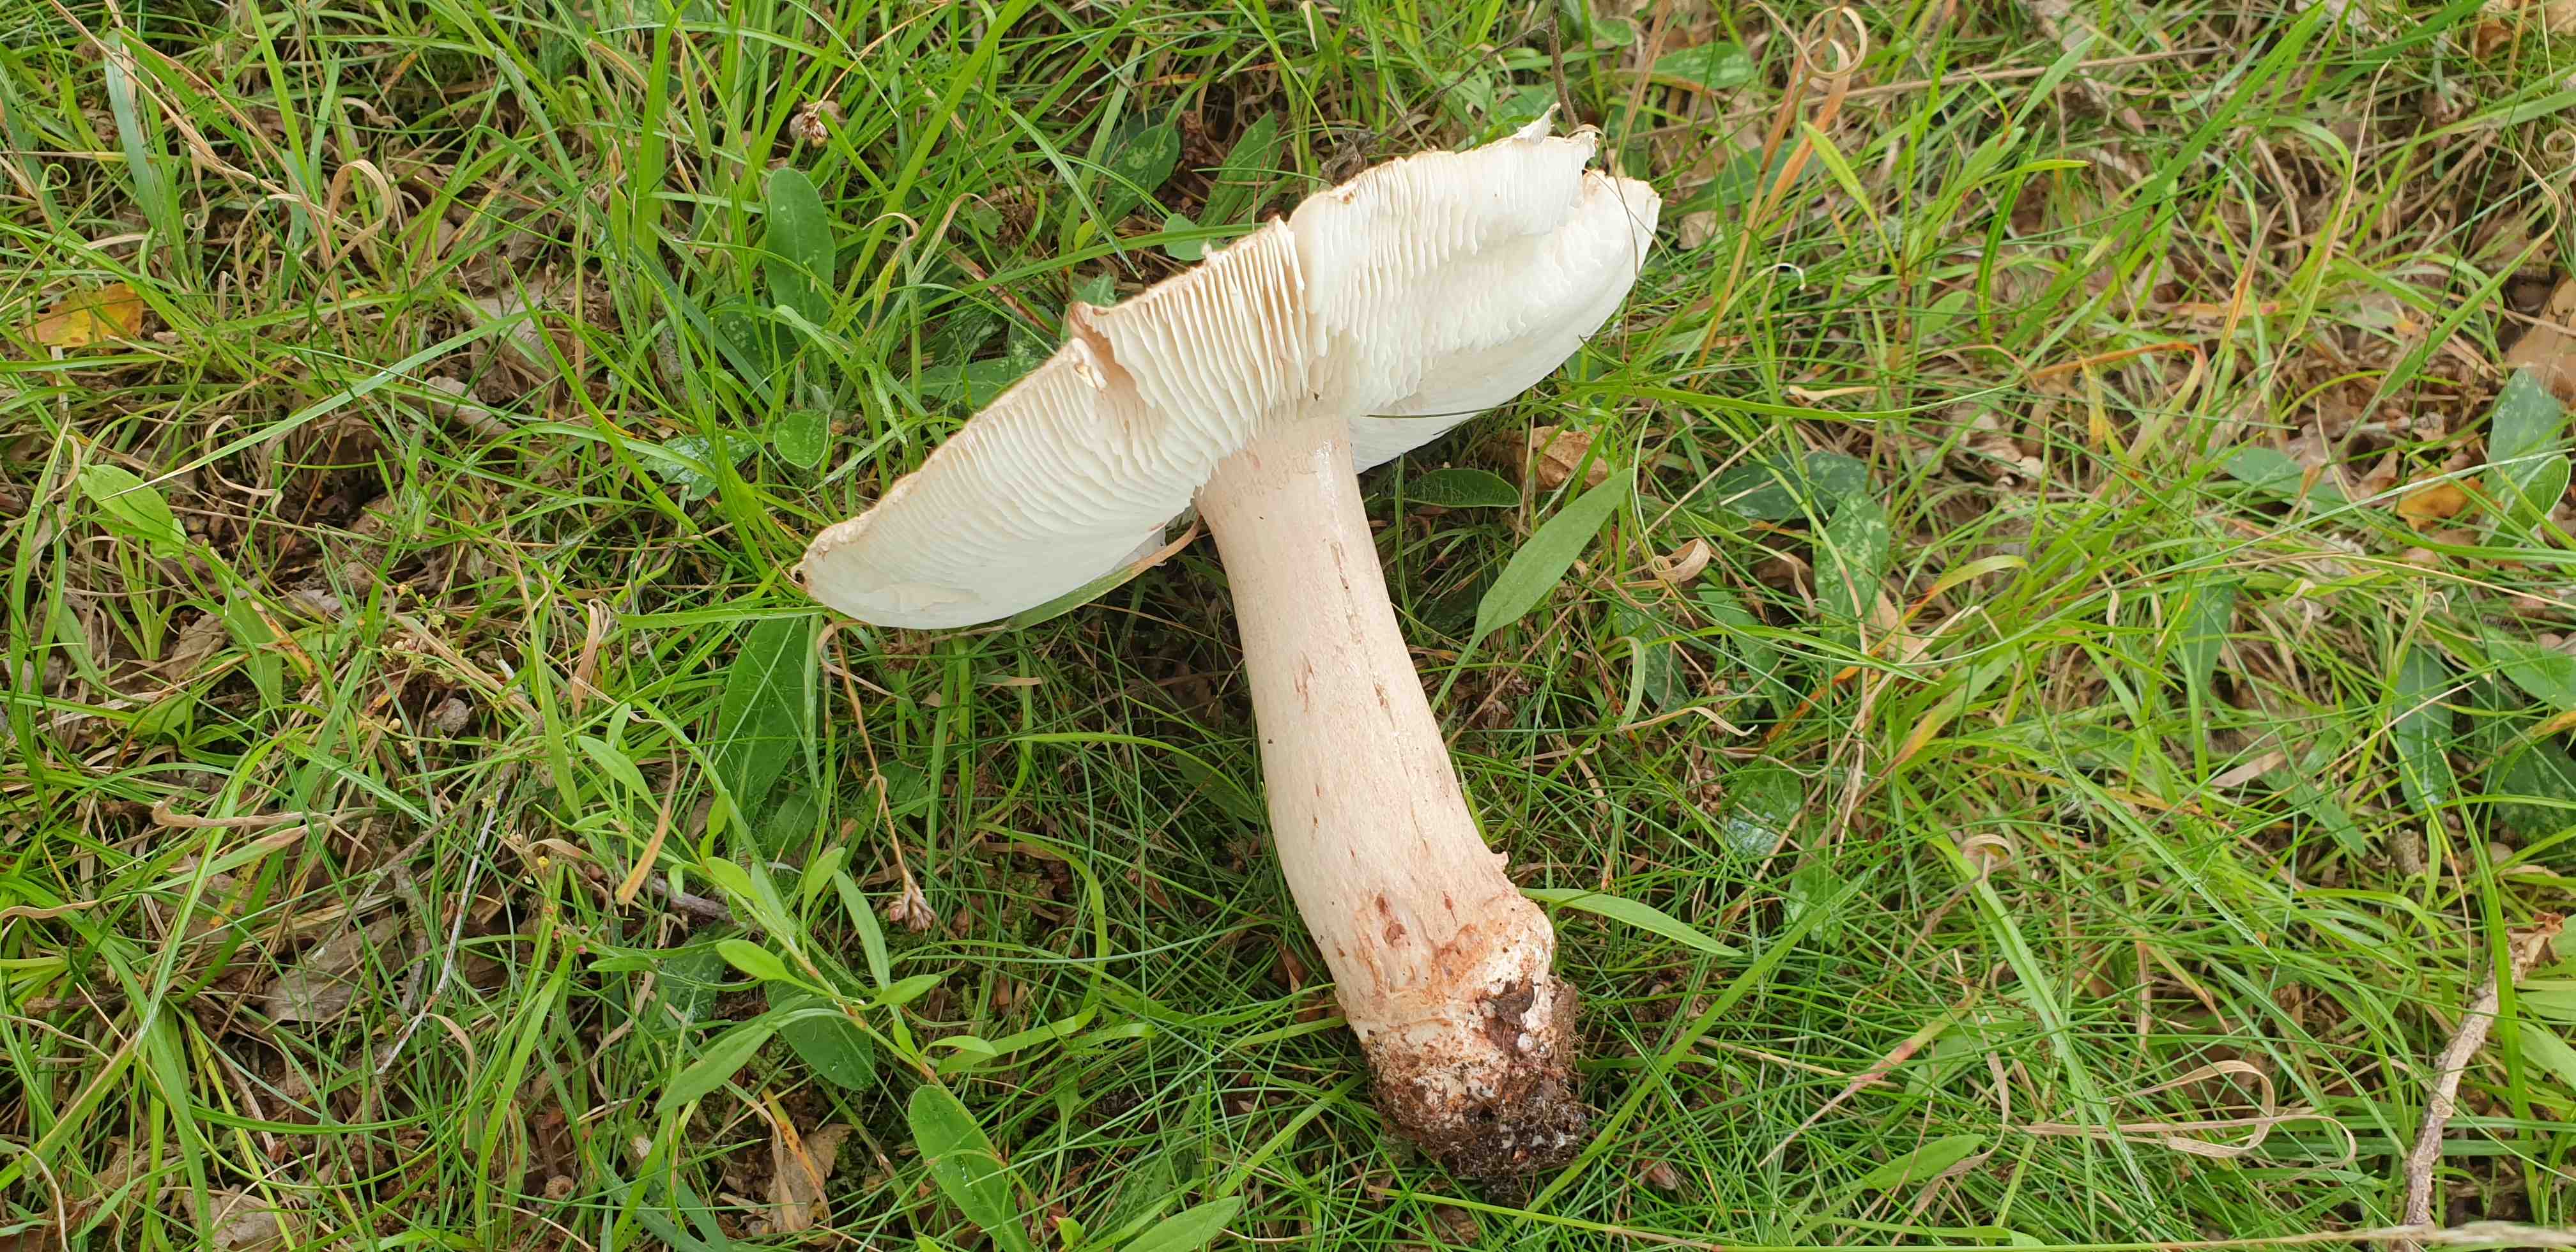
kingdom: Fungi
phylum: Basidiomycota
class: Agaricomycetes
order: Agaricales
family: Amanitaceae
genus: Amanita
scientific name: Amanita rubescens
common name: rødmende fluesvamp
